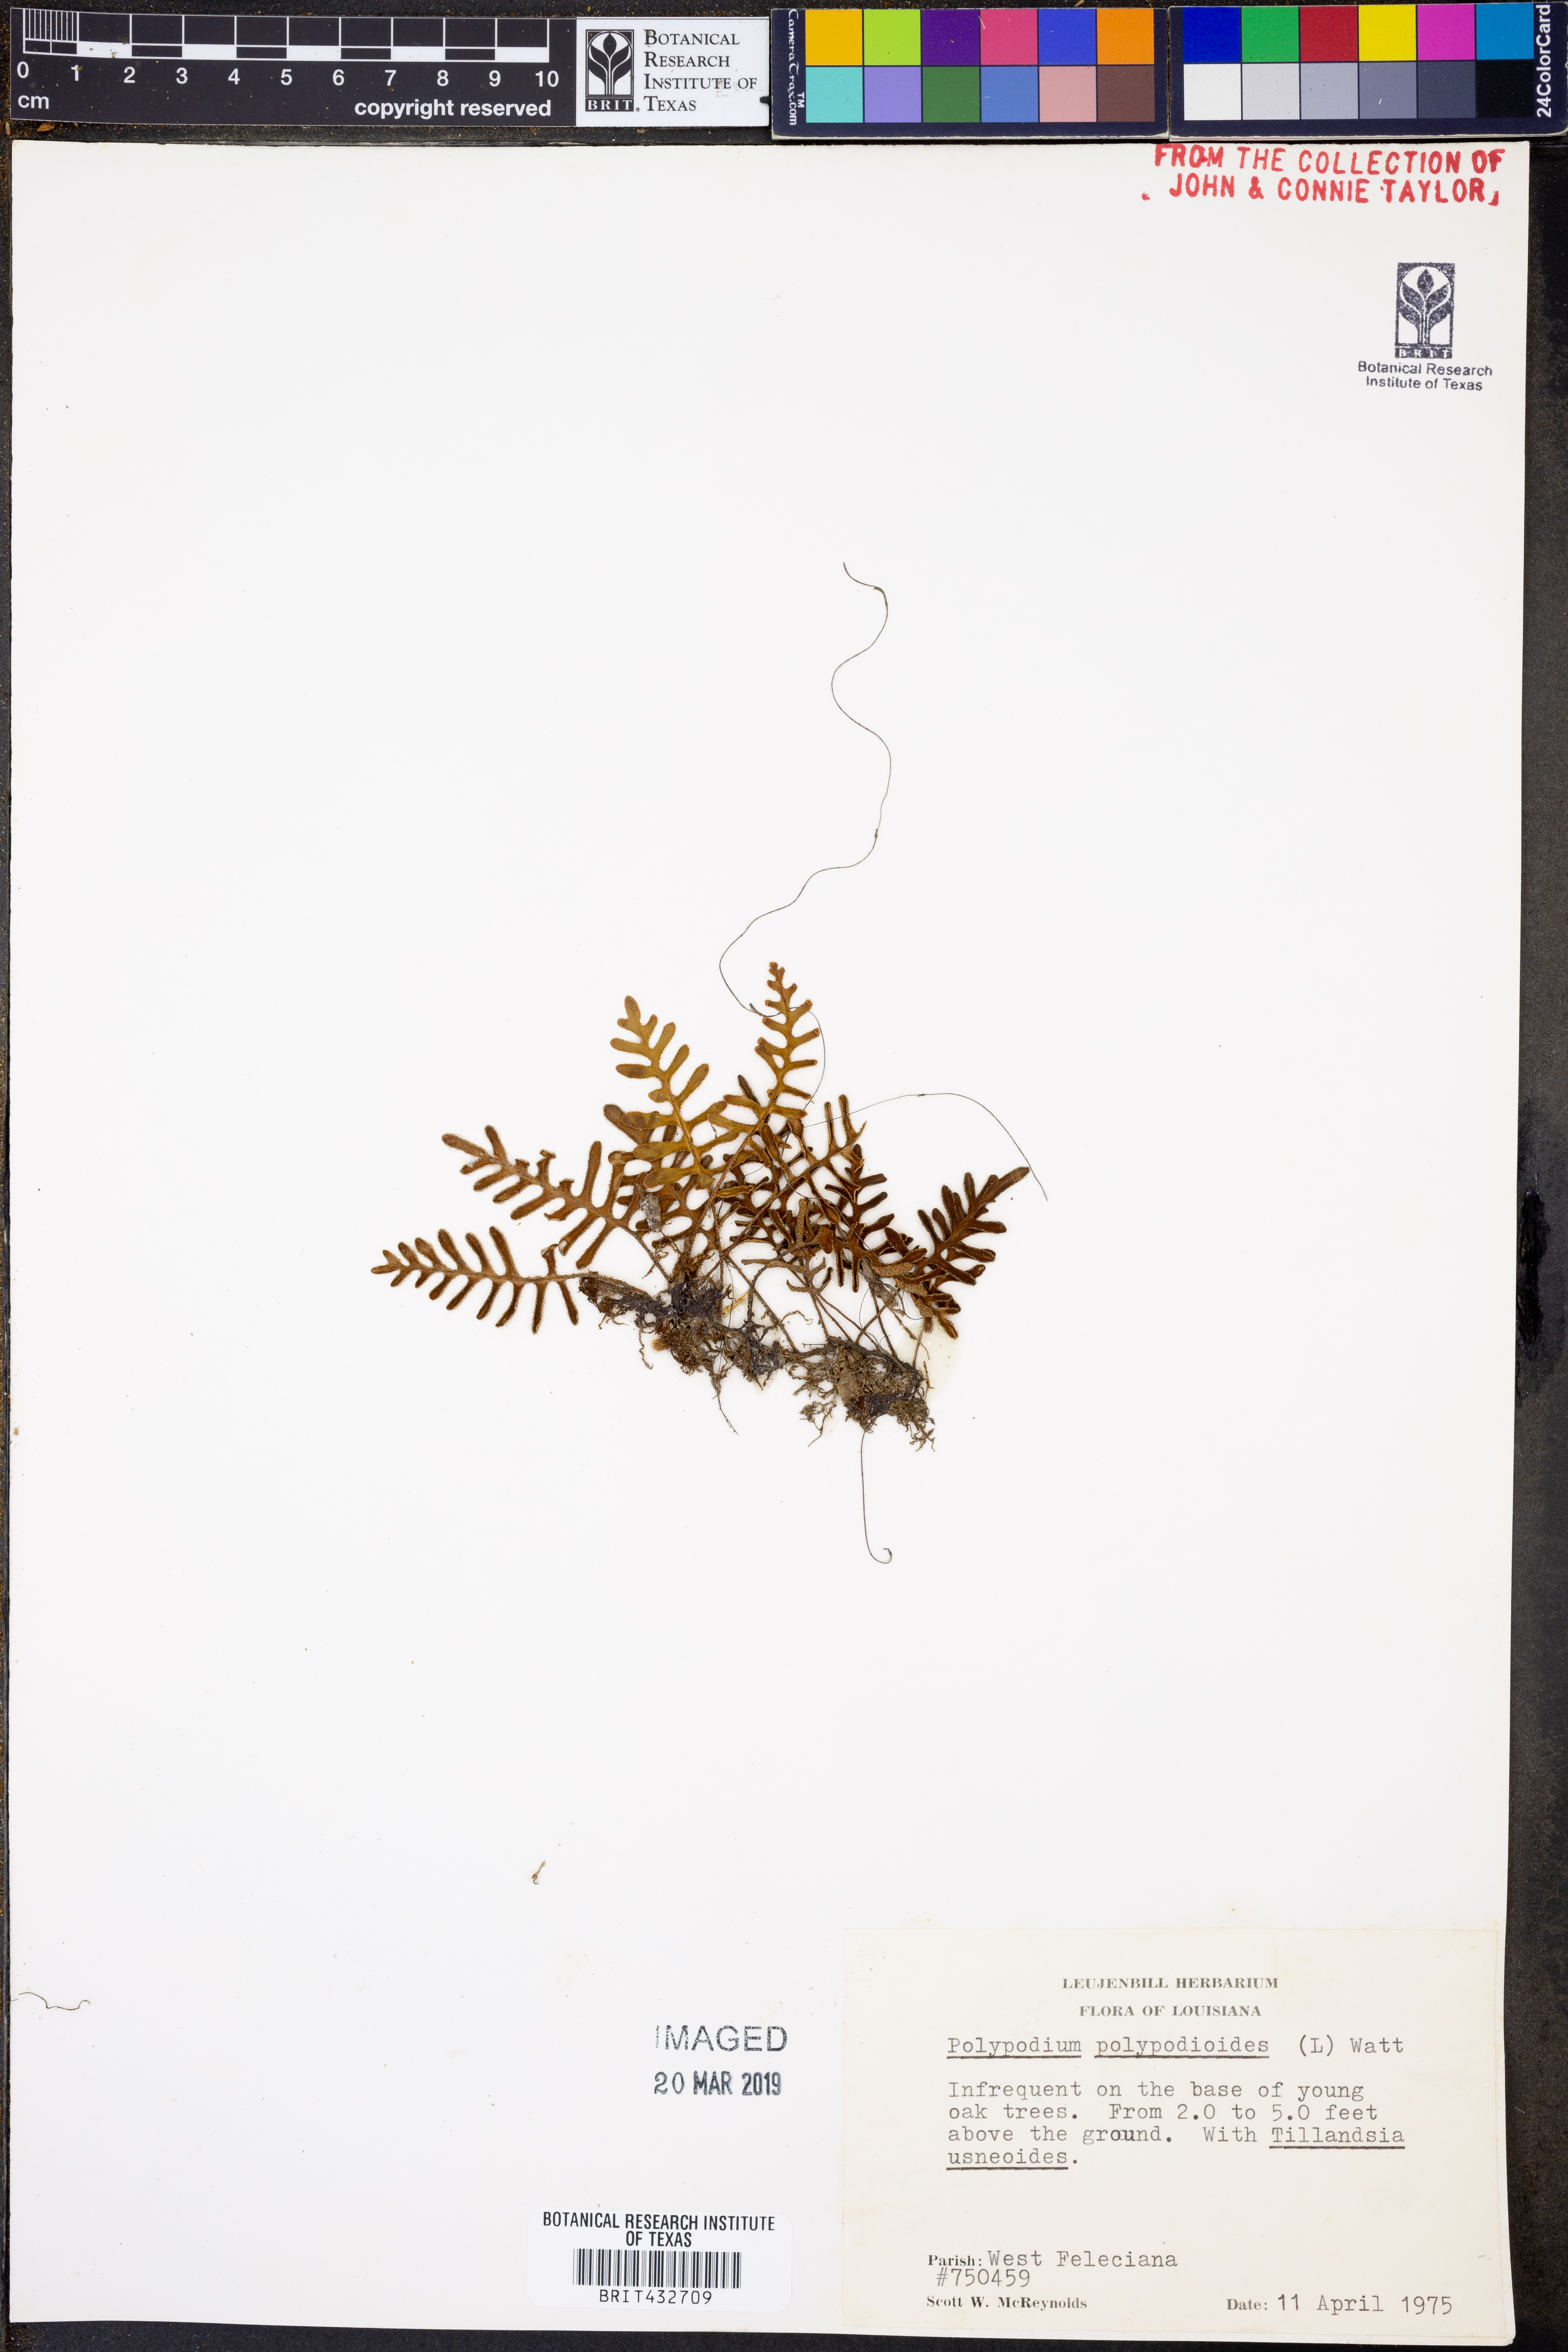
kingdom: Plantae
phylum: Tracheophyta
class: Polypodiopsida
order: Polypodiales
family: Polypodiaceae
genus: Pleopeltis
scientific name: Pleopeltis polypodioides
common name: Resurrection fern
